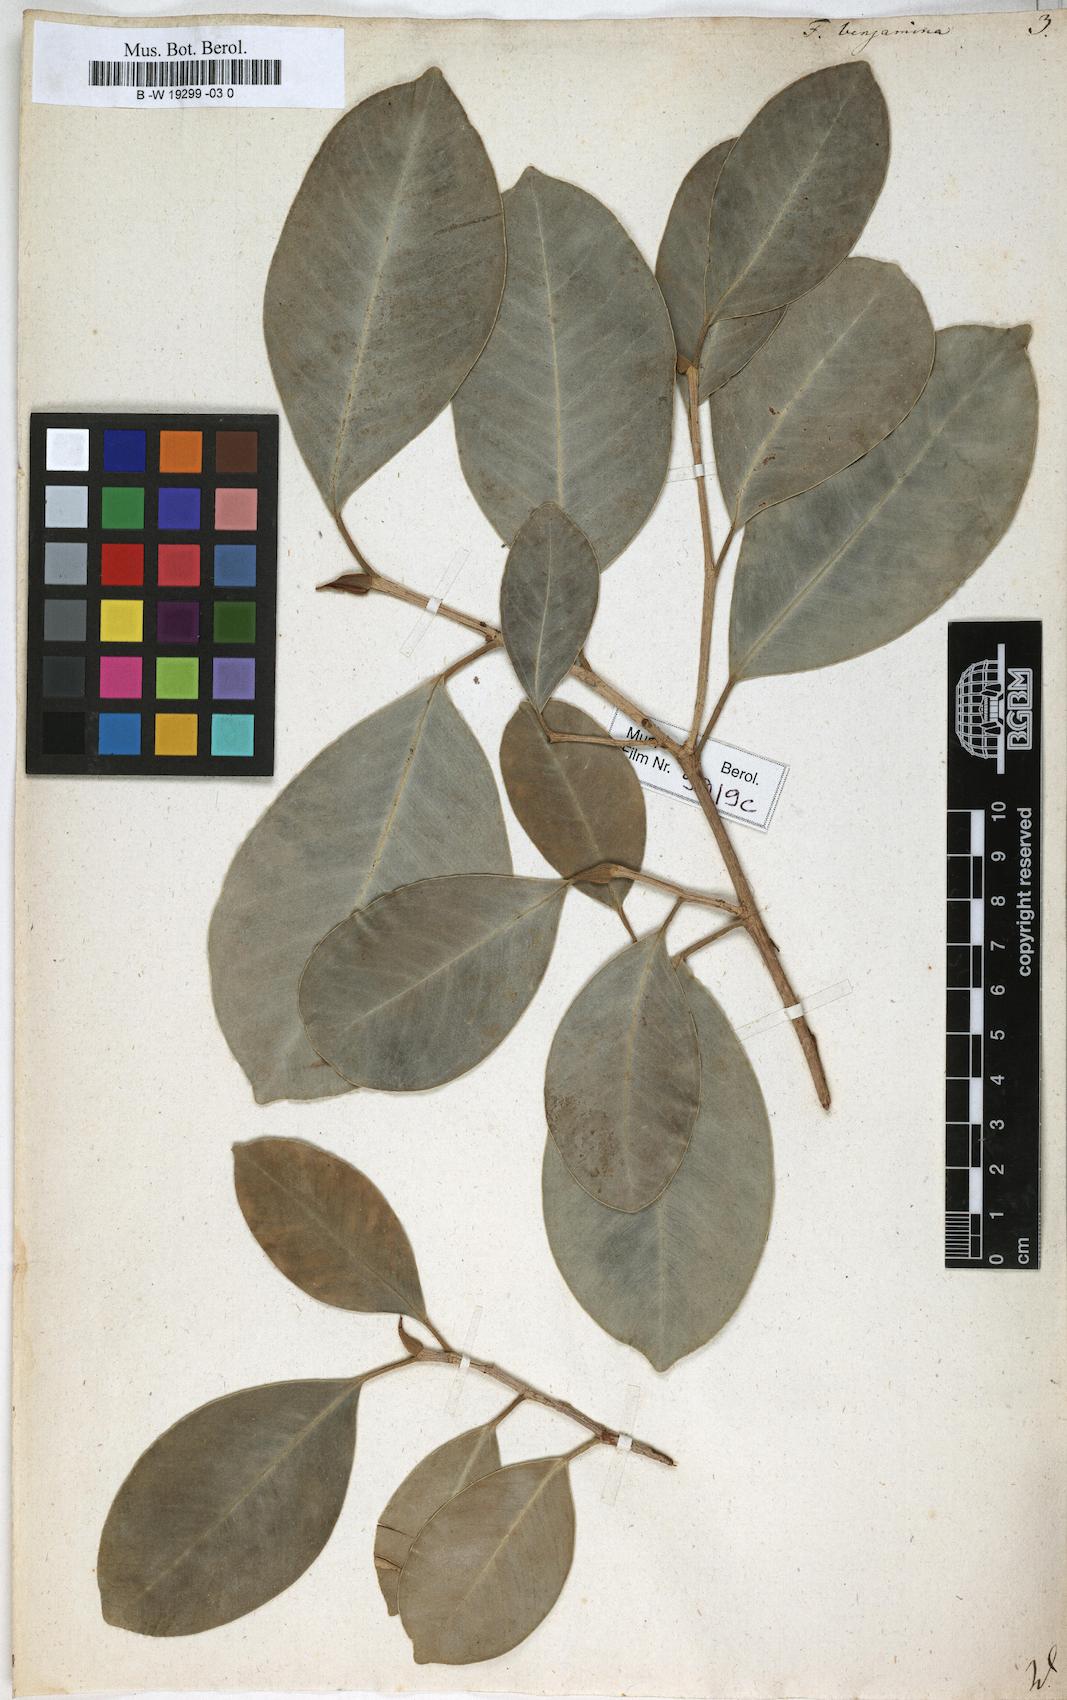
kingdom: Plantae
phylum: Tracheophyta
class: Magnoliopsida
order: Rosales
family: Moraceae
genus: Ficus
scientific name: Ficus benjamina
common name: Weeping fig
